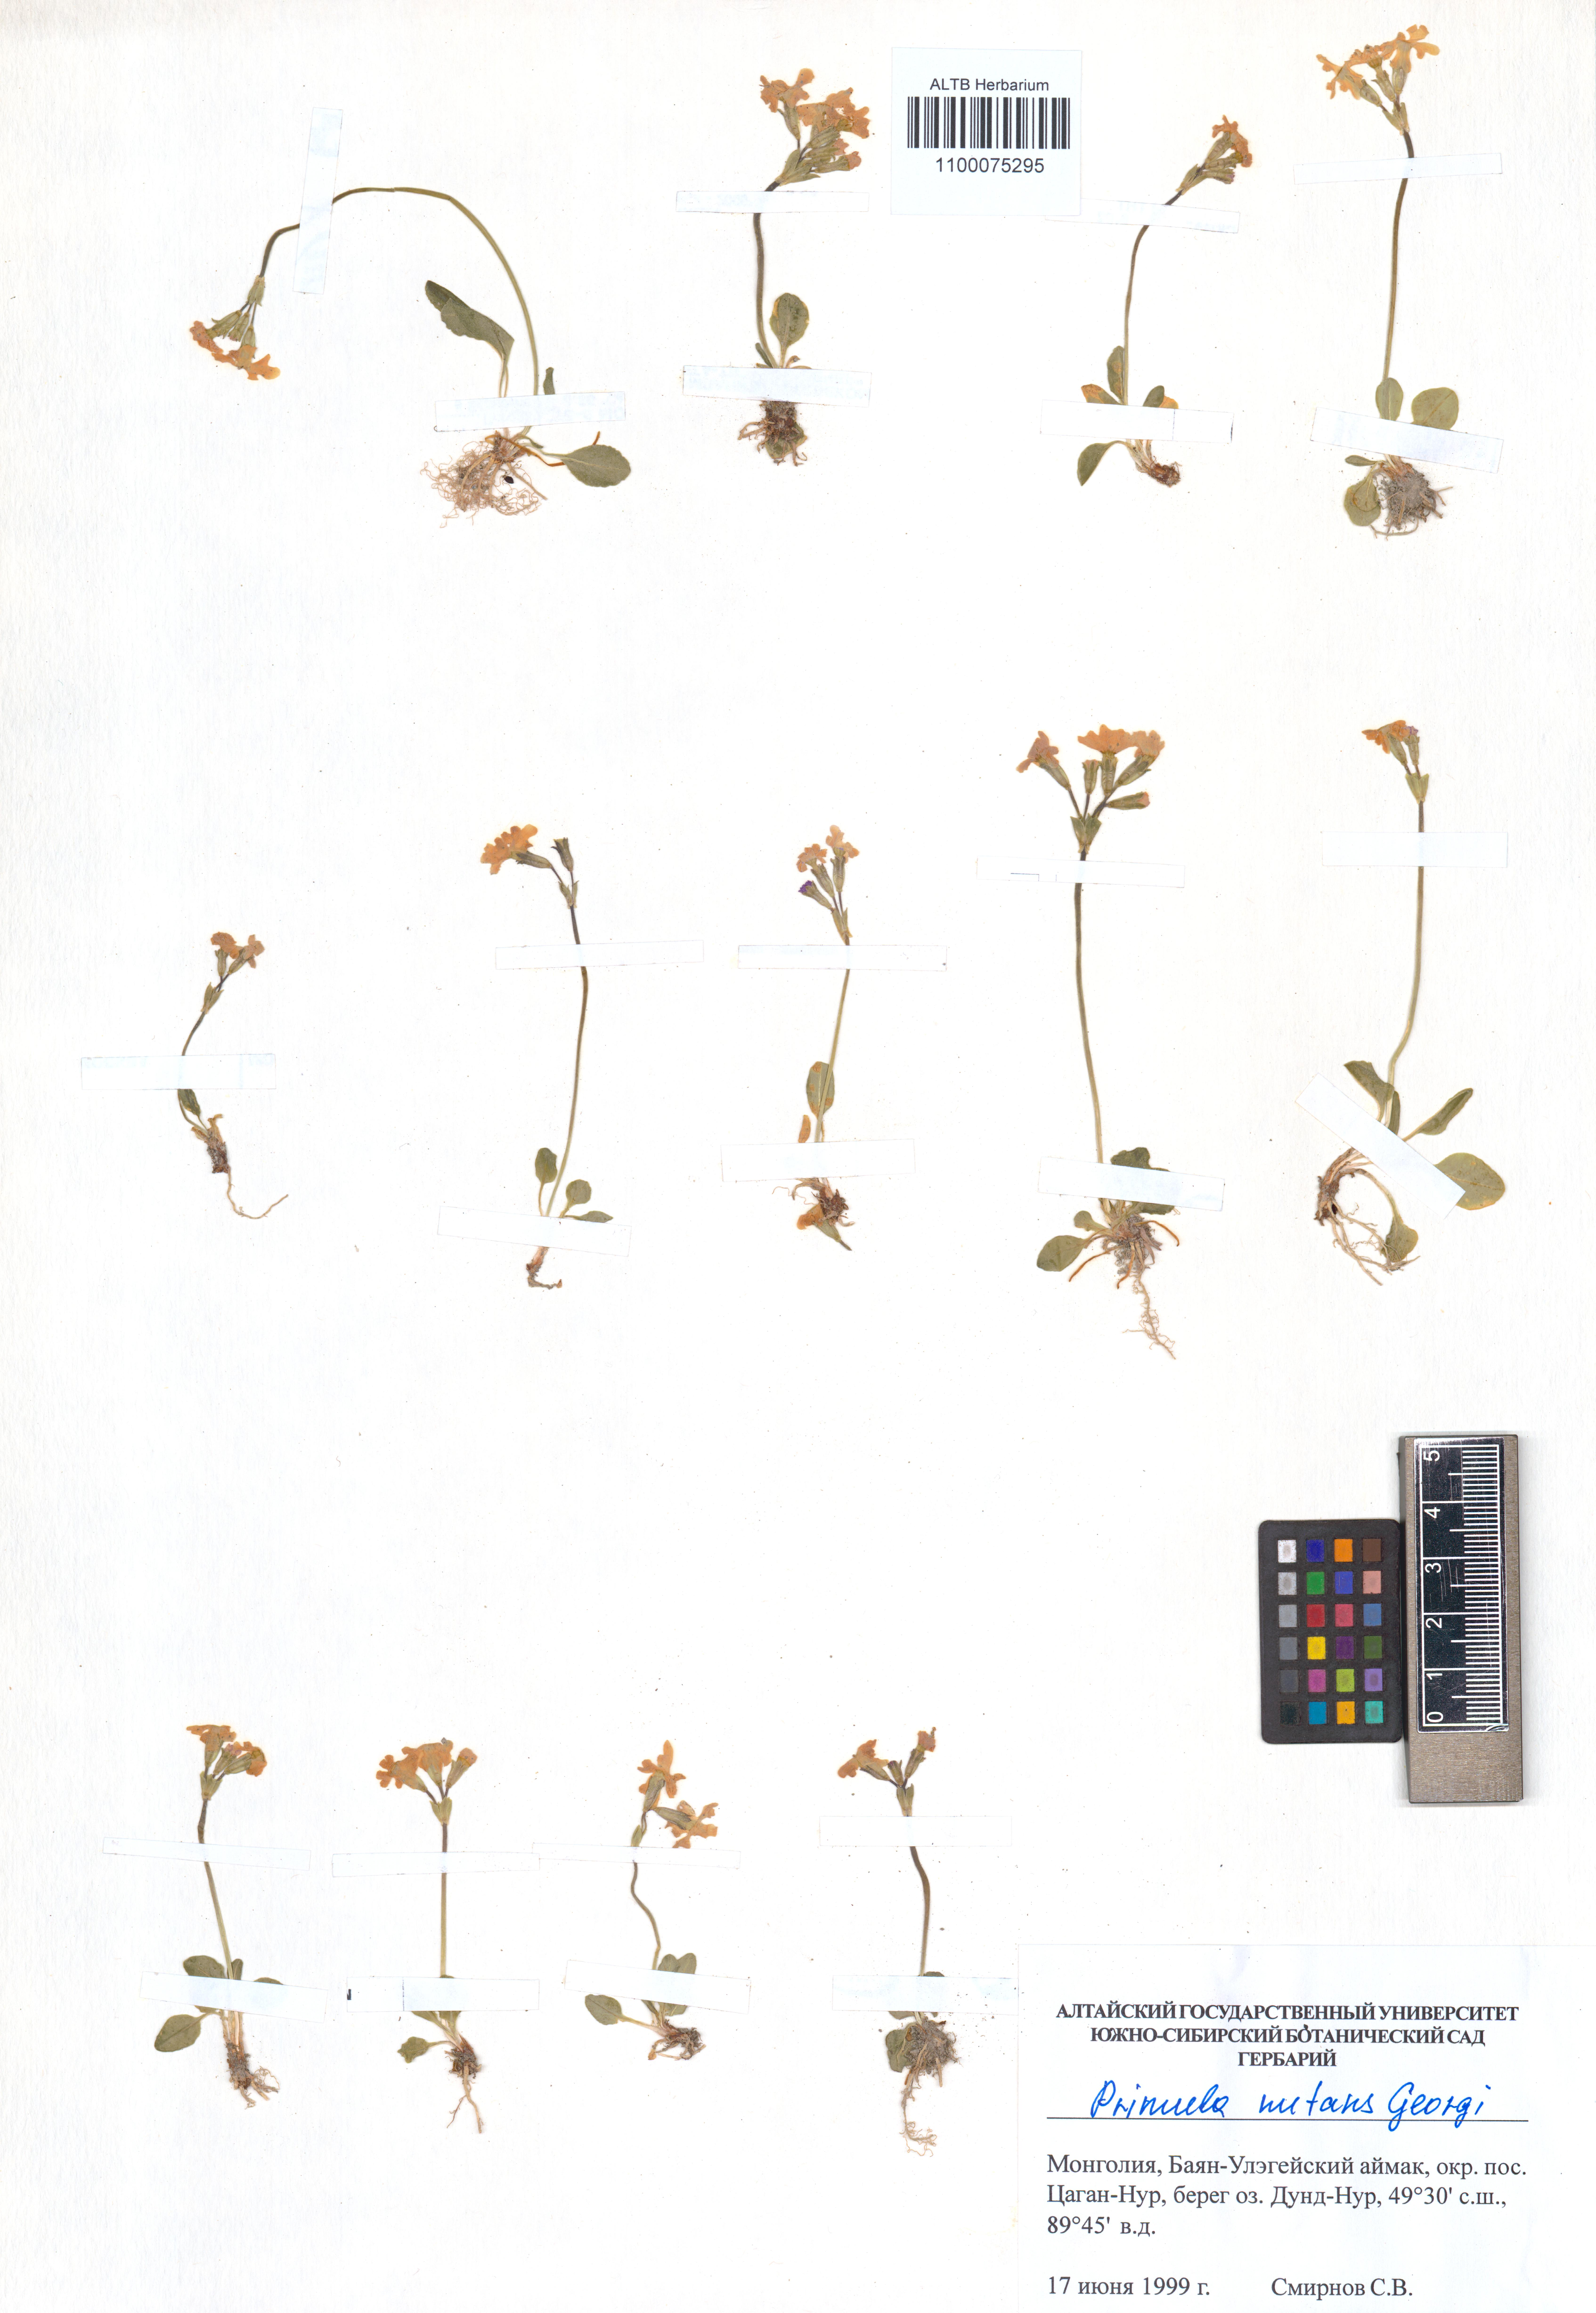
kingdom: Plantae
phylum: Tracheophyta
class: Magnoliopsida
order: Ericales
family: Primulaceae
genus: Primula
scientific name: Primula nutans
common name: Siberian primrose
